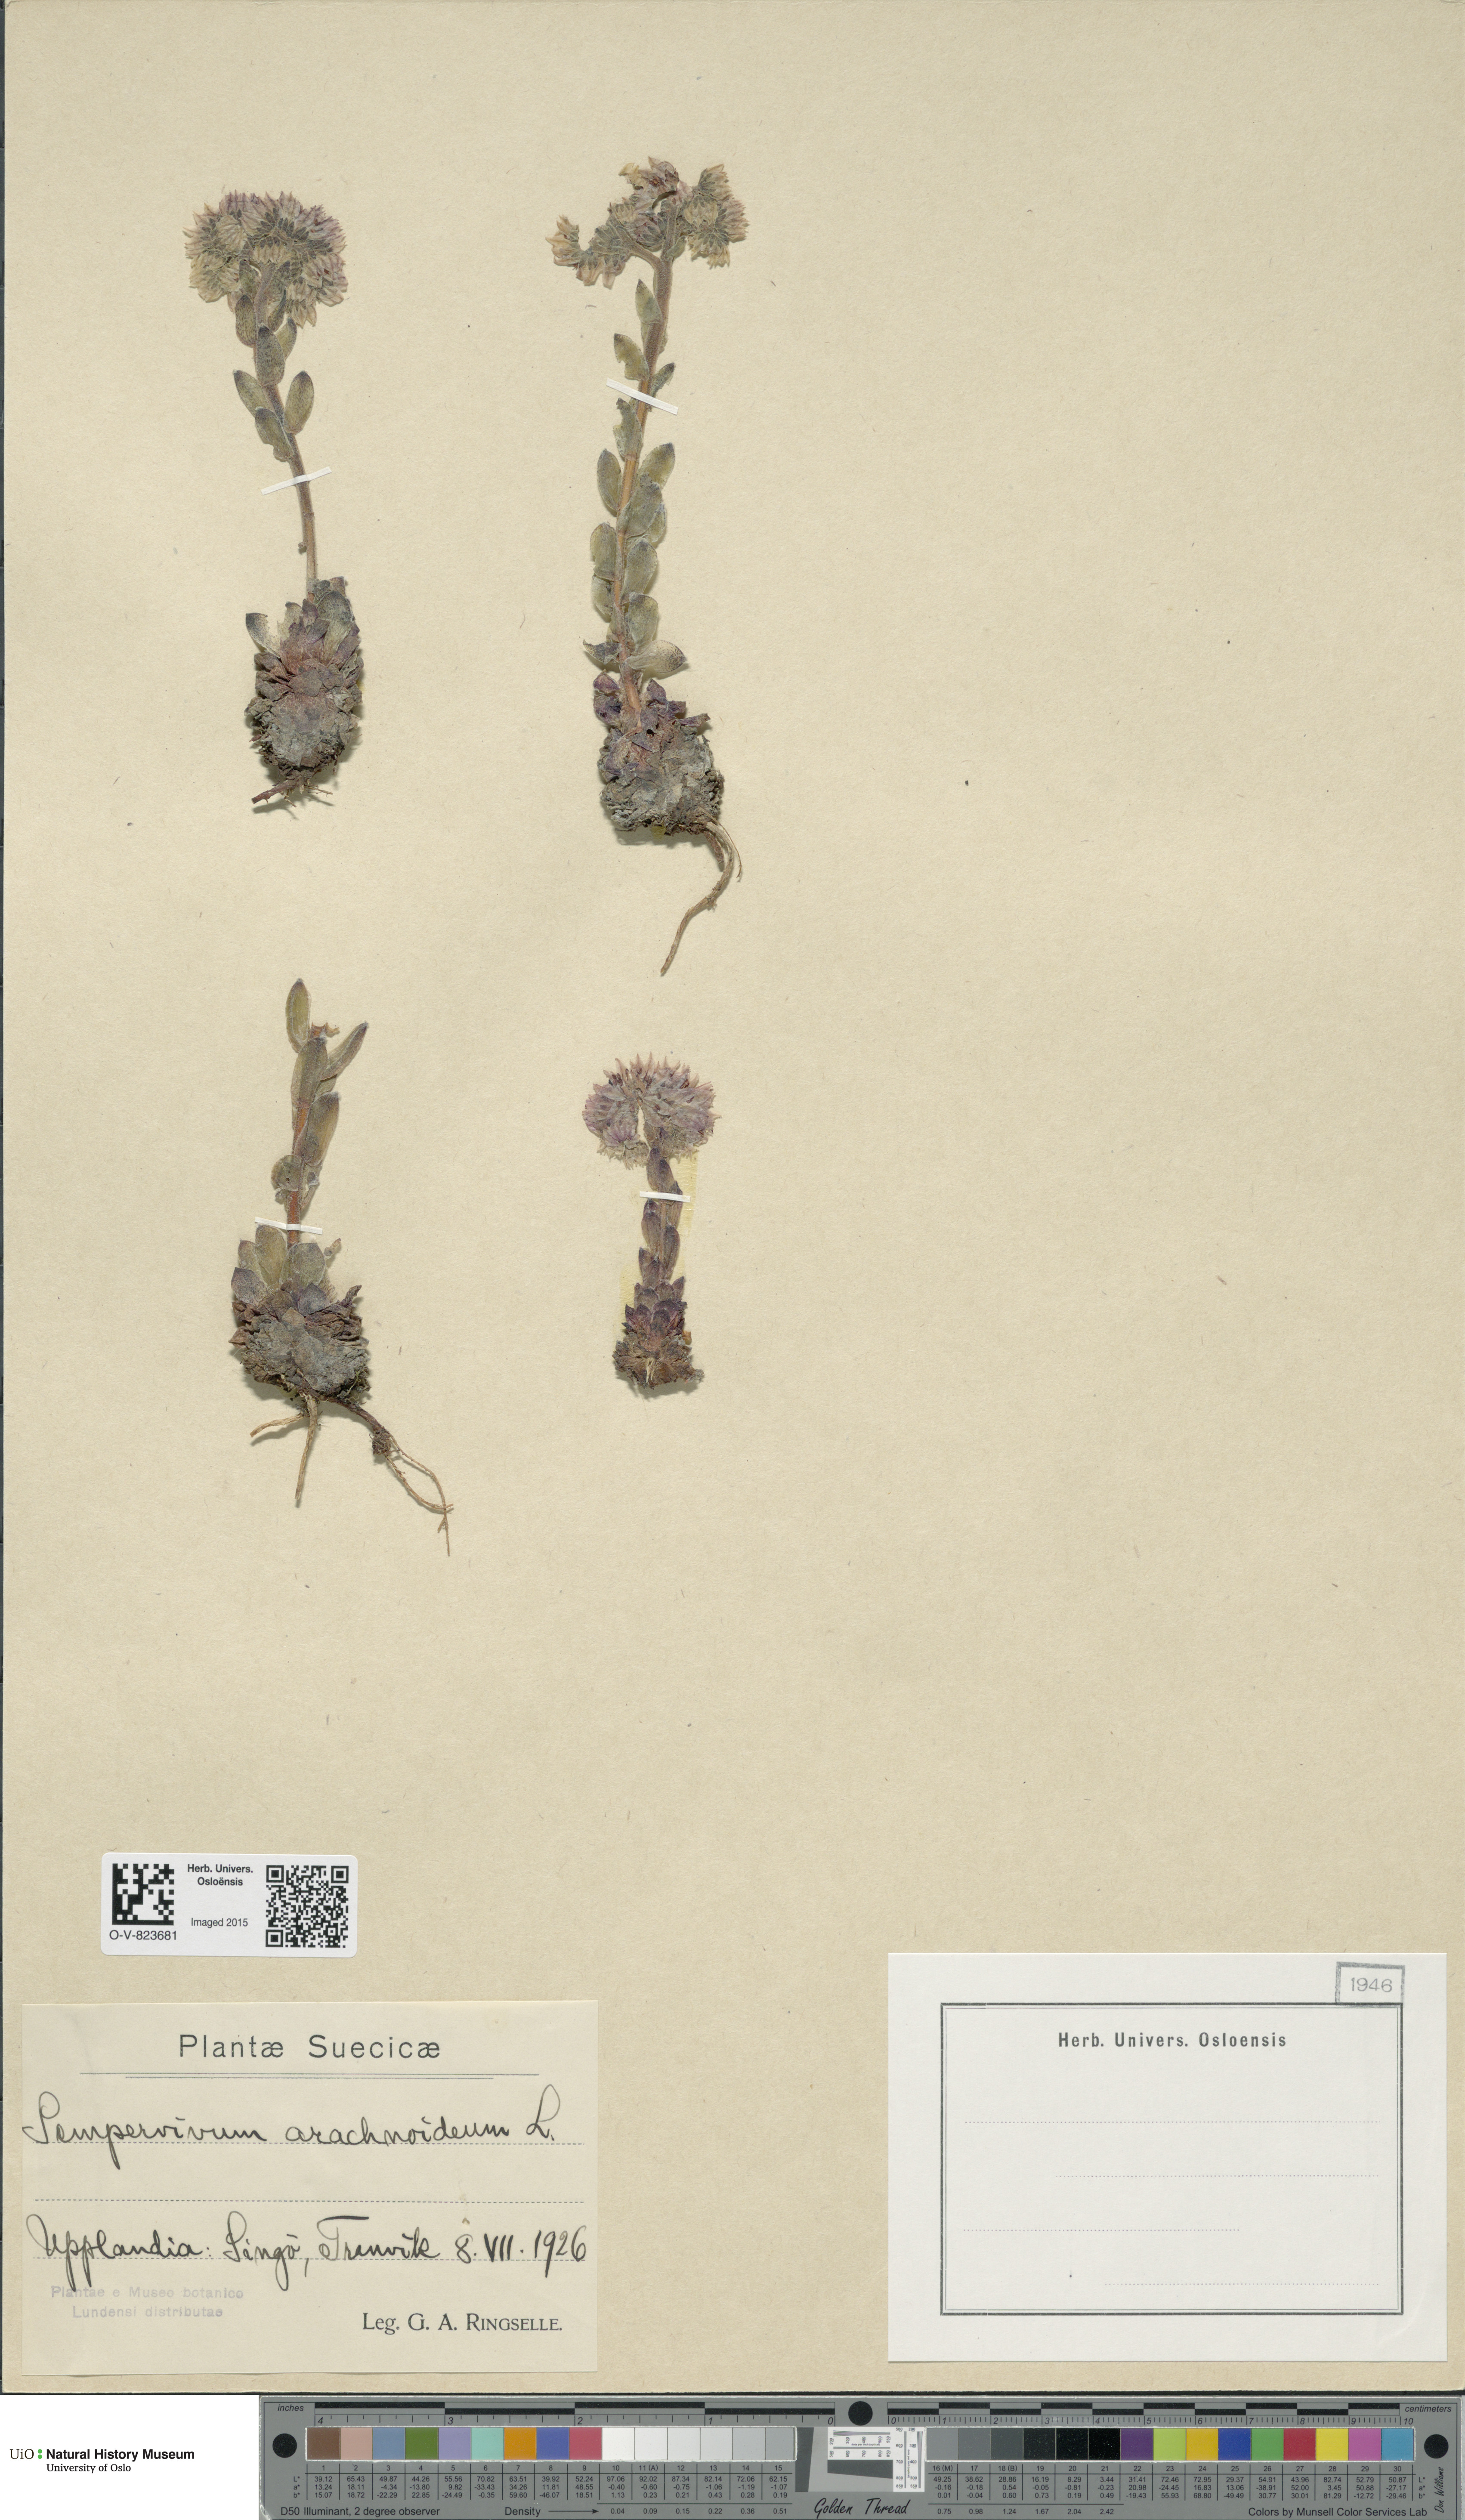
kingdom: Plantae
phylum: Tracheophyta
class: Magnoliopsida
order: Saxifragales
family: Crassulaceae
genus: Sempervivum
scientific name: Sempervivum arachnoideum
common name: Cobweb house-leek
